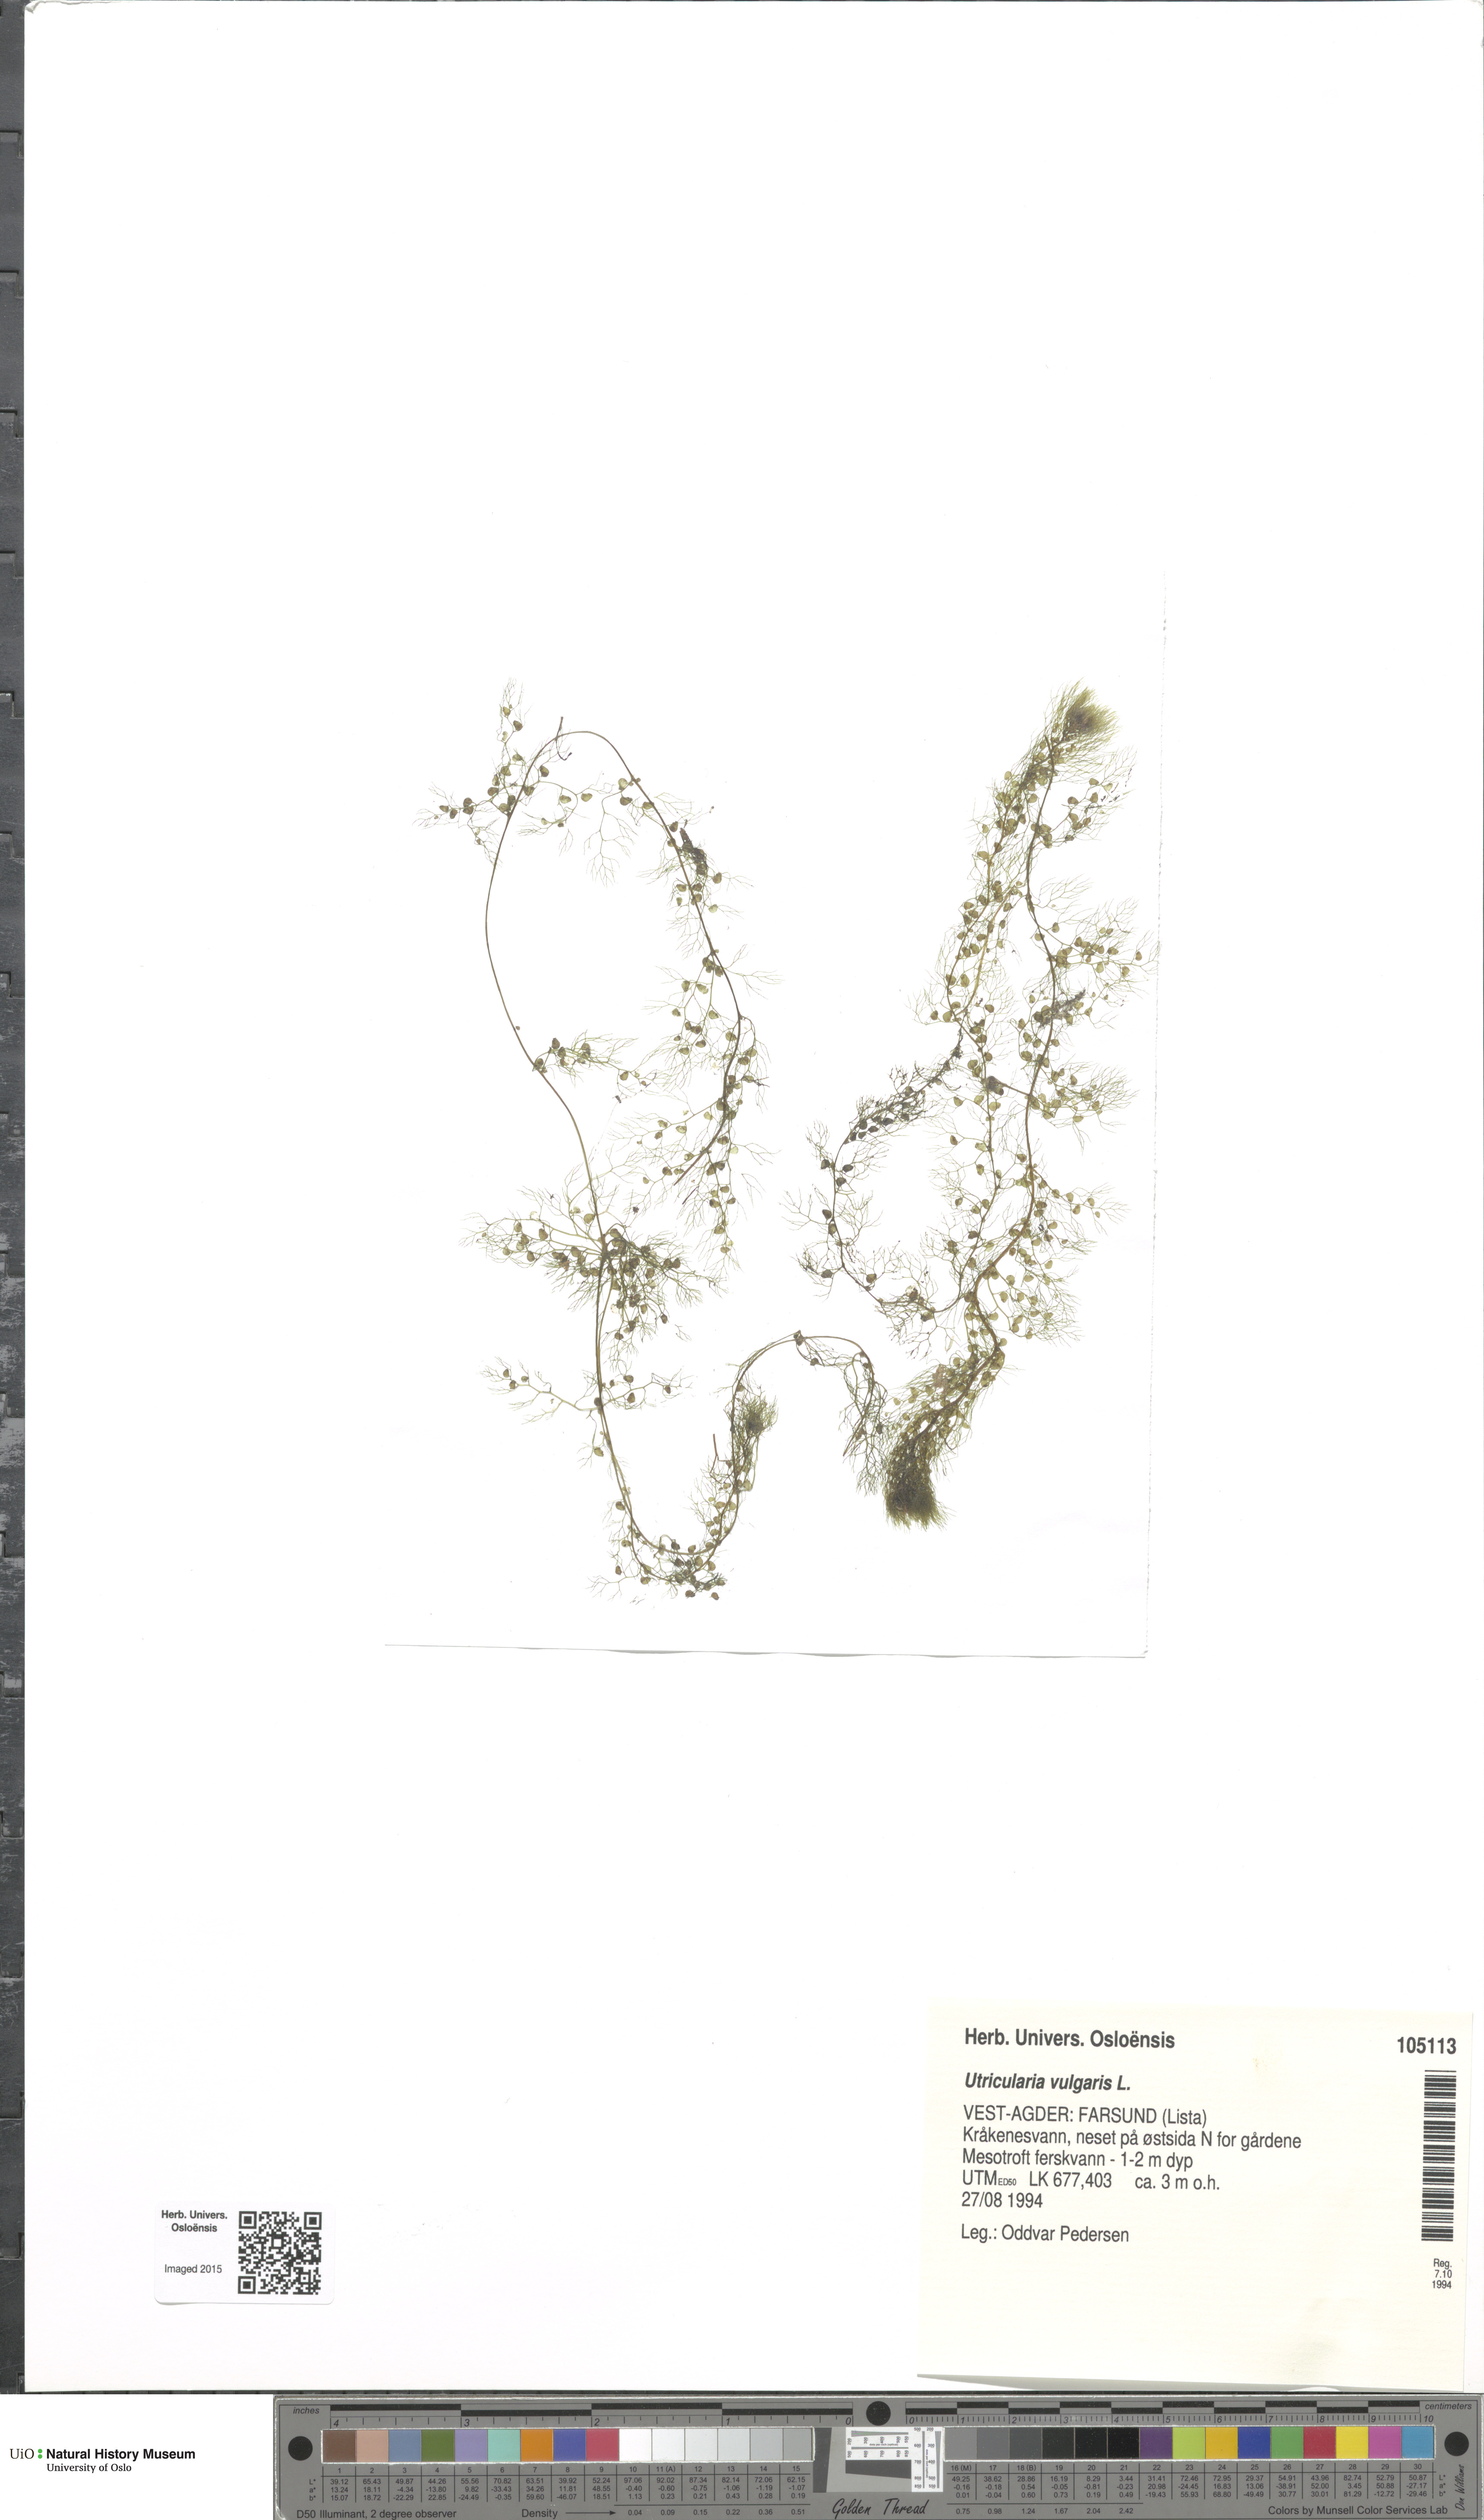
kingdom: Plantae
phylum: Tracheophyta
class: Magnoliopsida
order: Lamiales
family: Lentibulariaceae
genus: Utricularia
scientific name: Utricularia vulgaris
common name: Greater bladderwort
